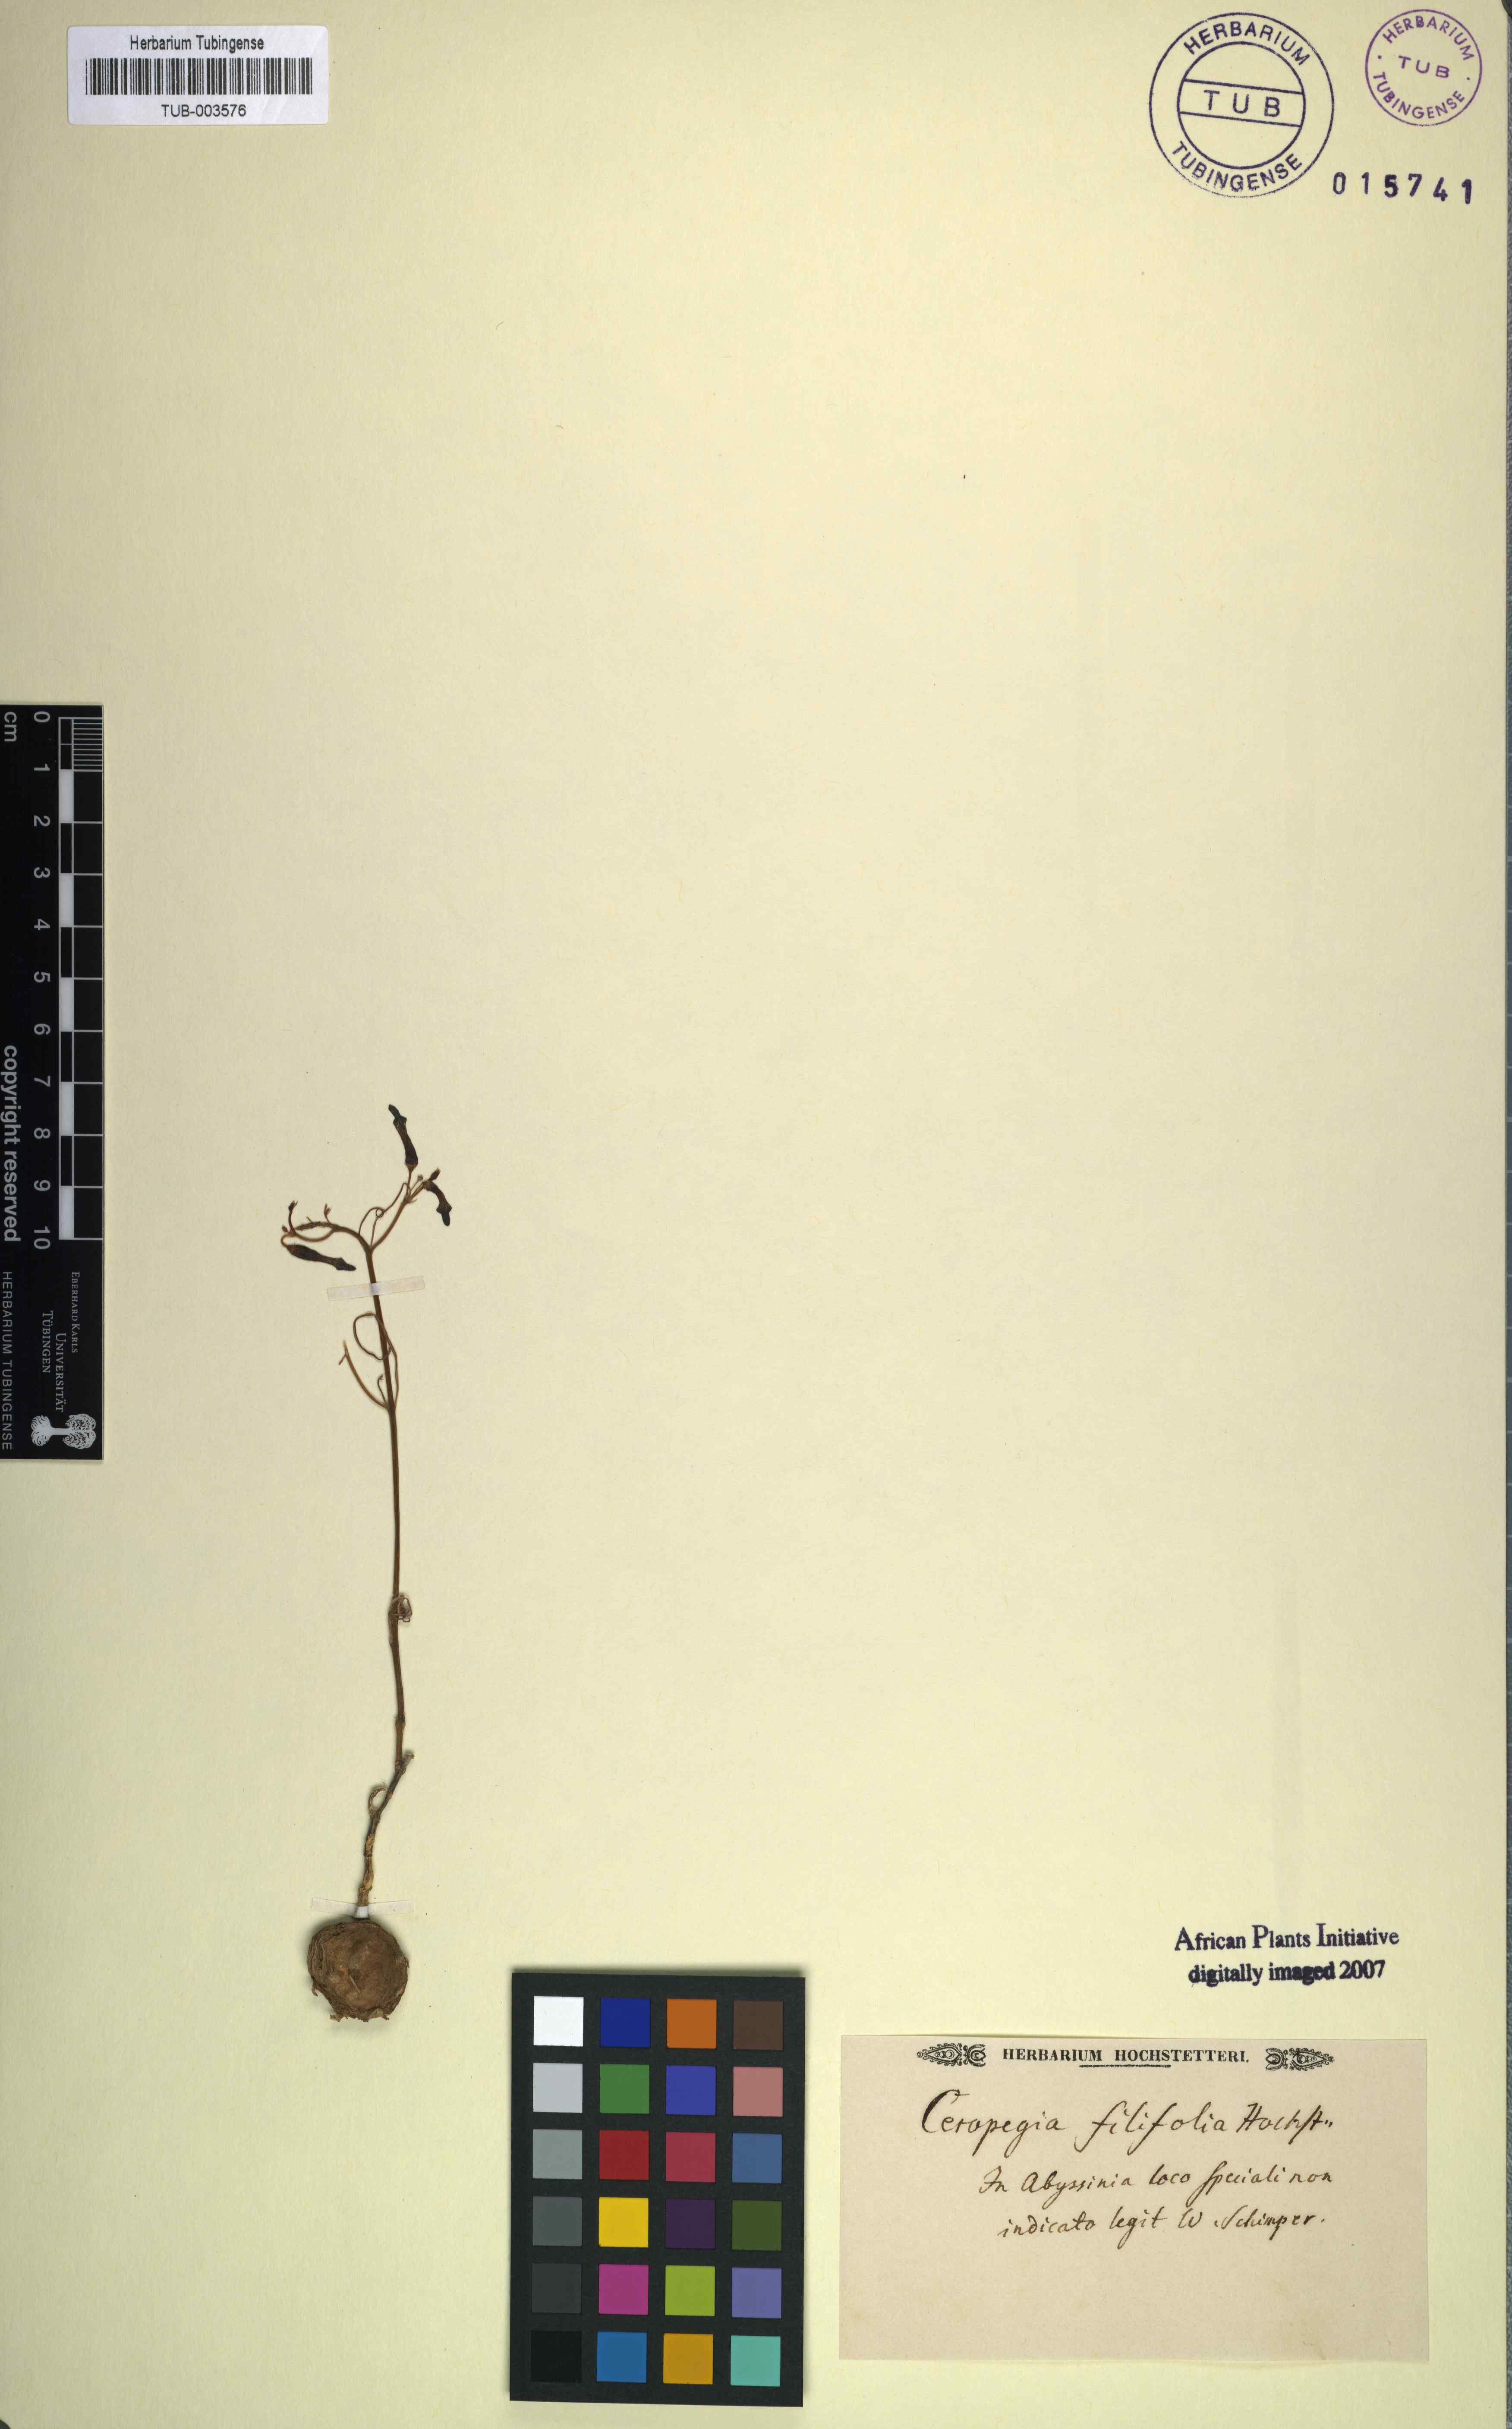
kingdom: Plantae
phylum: Tracheophyta
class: Magnoliopsida
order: Gentianales
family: Apocynaceae
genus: Ceropegia
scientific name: Ceropegia filifolia
